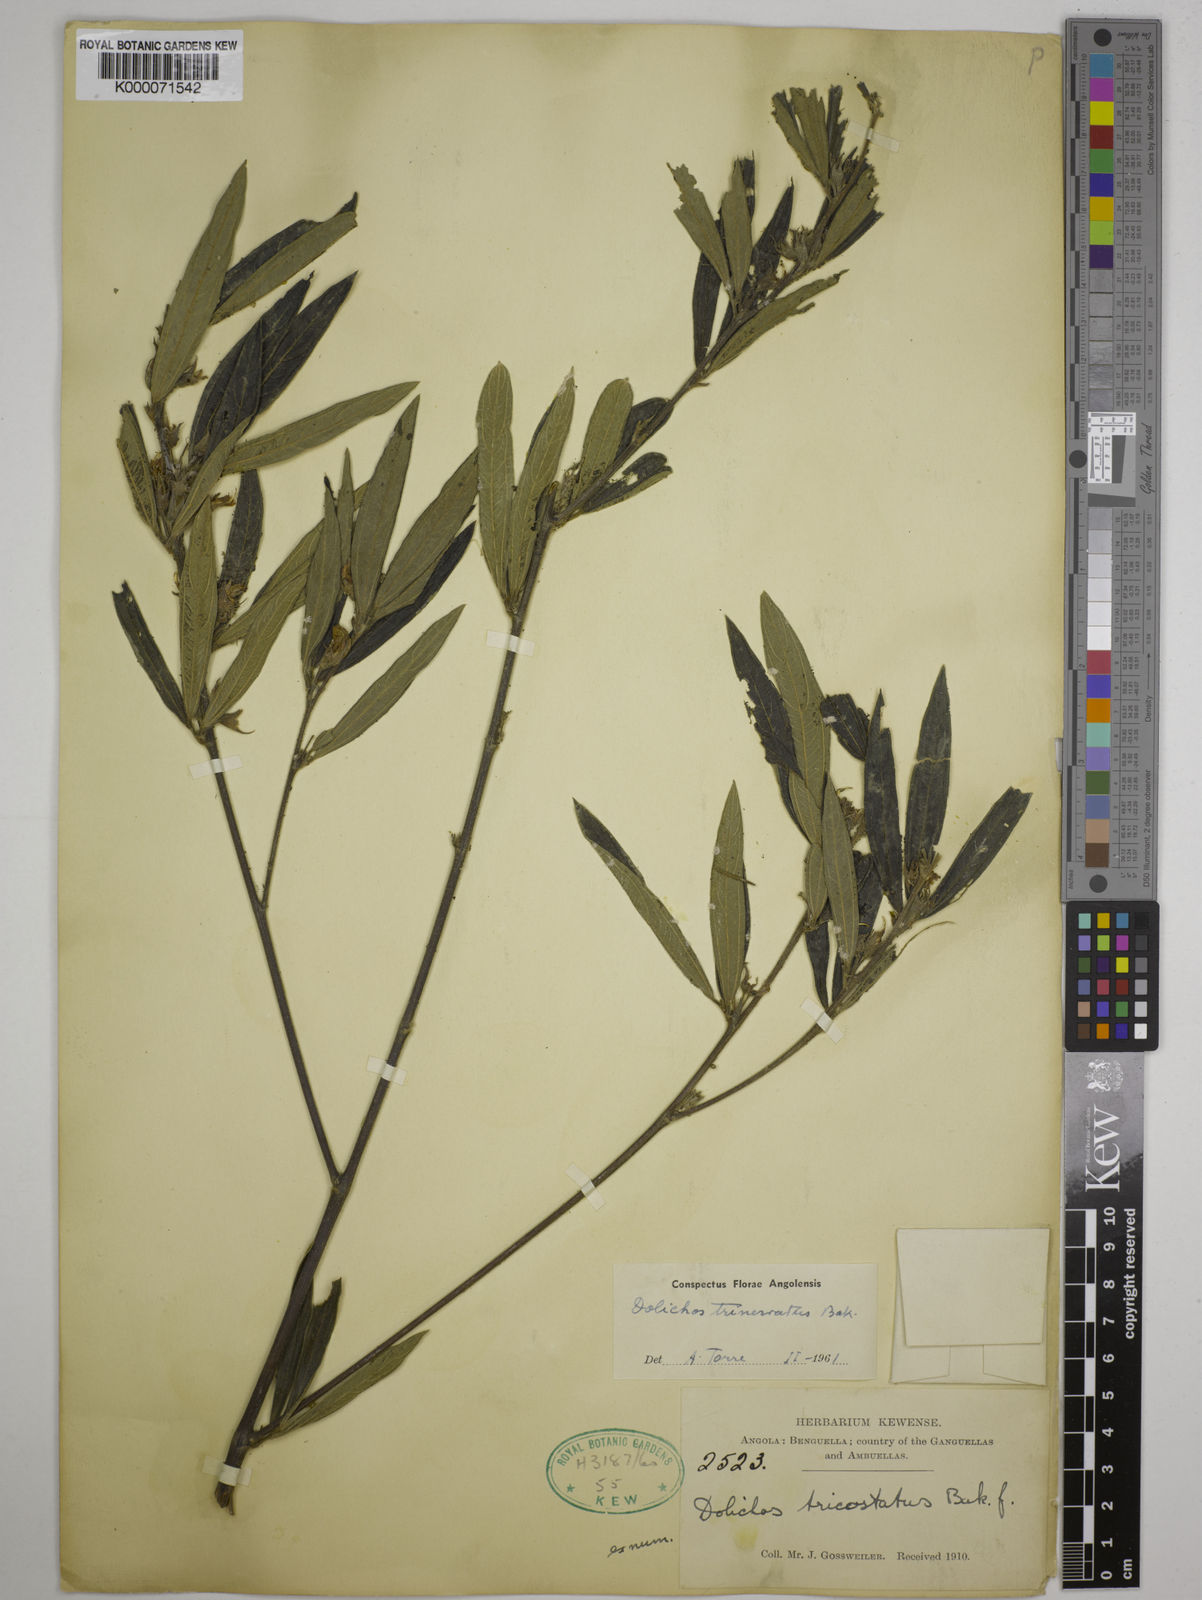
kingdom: Plantae
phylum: Tracheophyta
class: Magnoliopsida
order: Fabales
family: Fabaceae
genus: Dolichos
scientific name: Dolichos trinervatus
